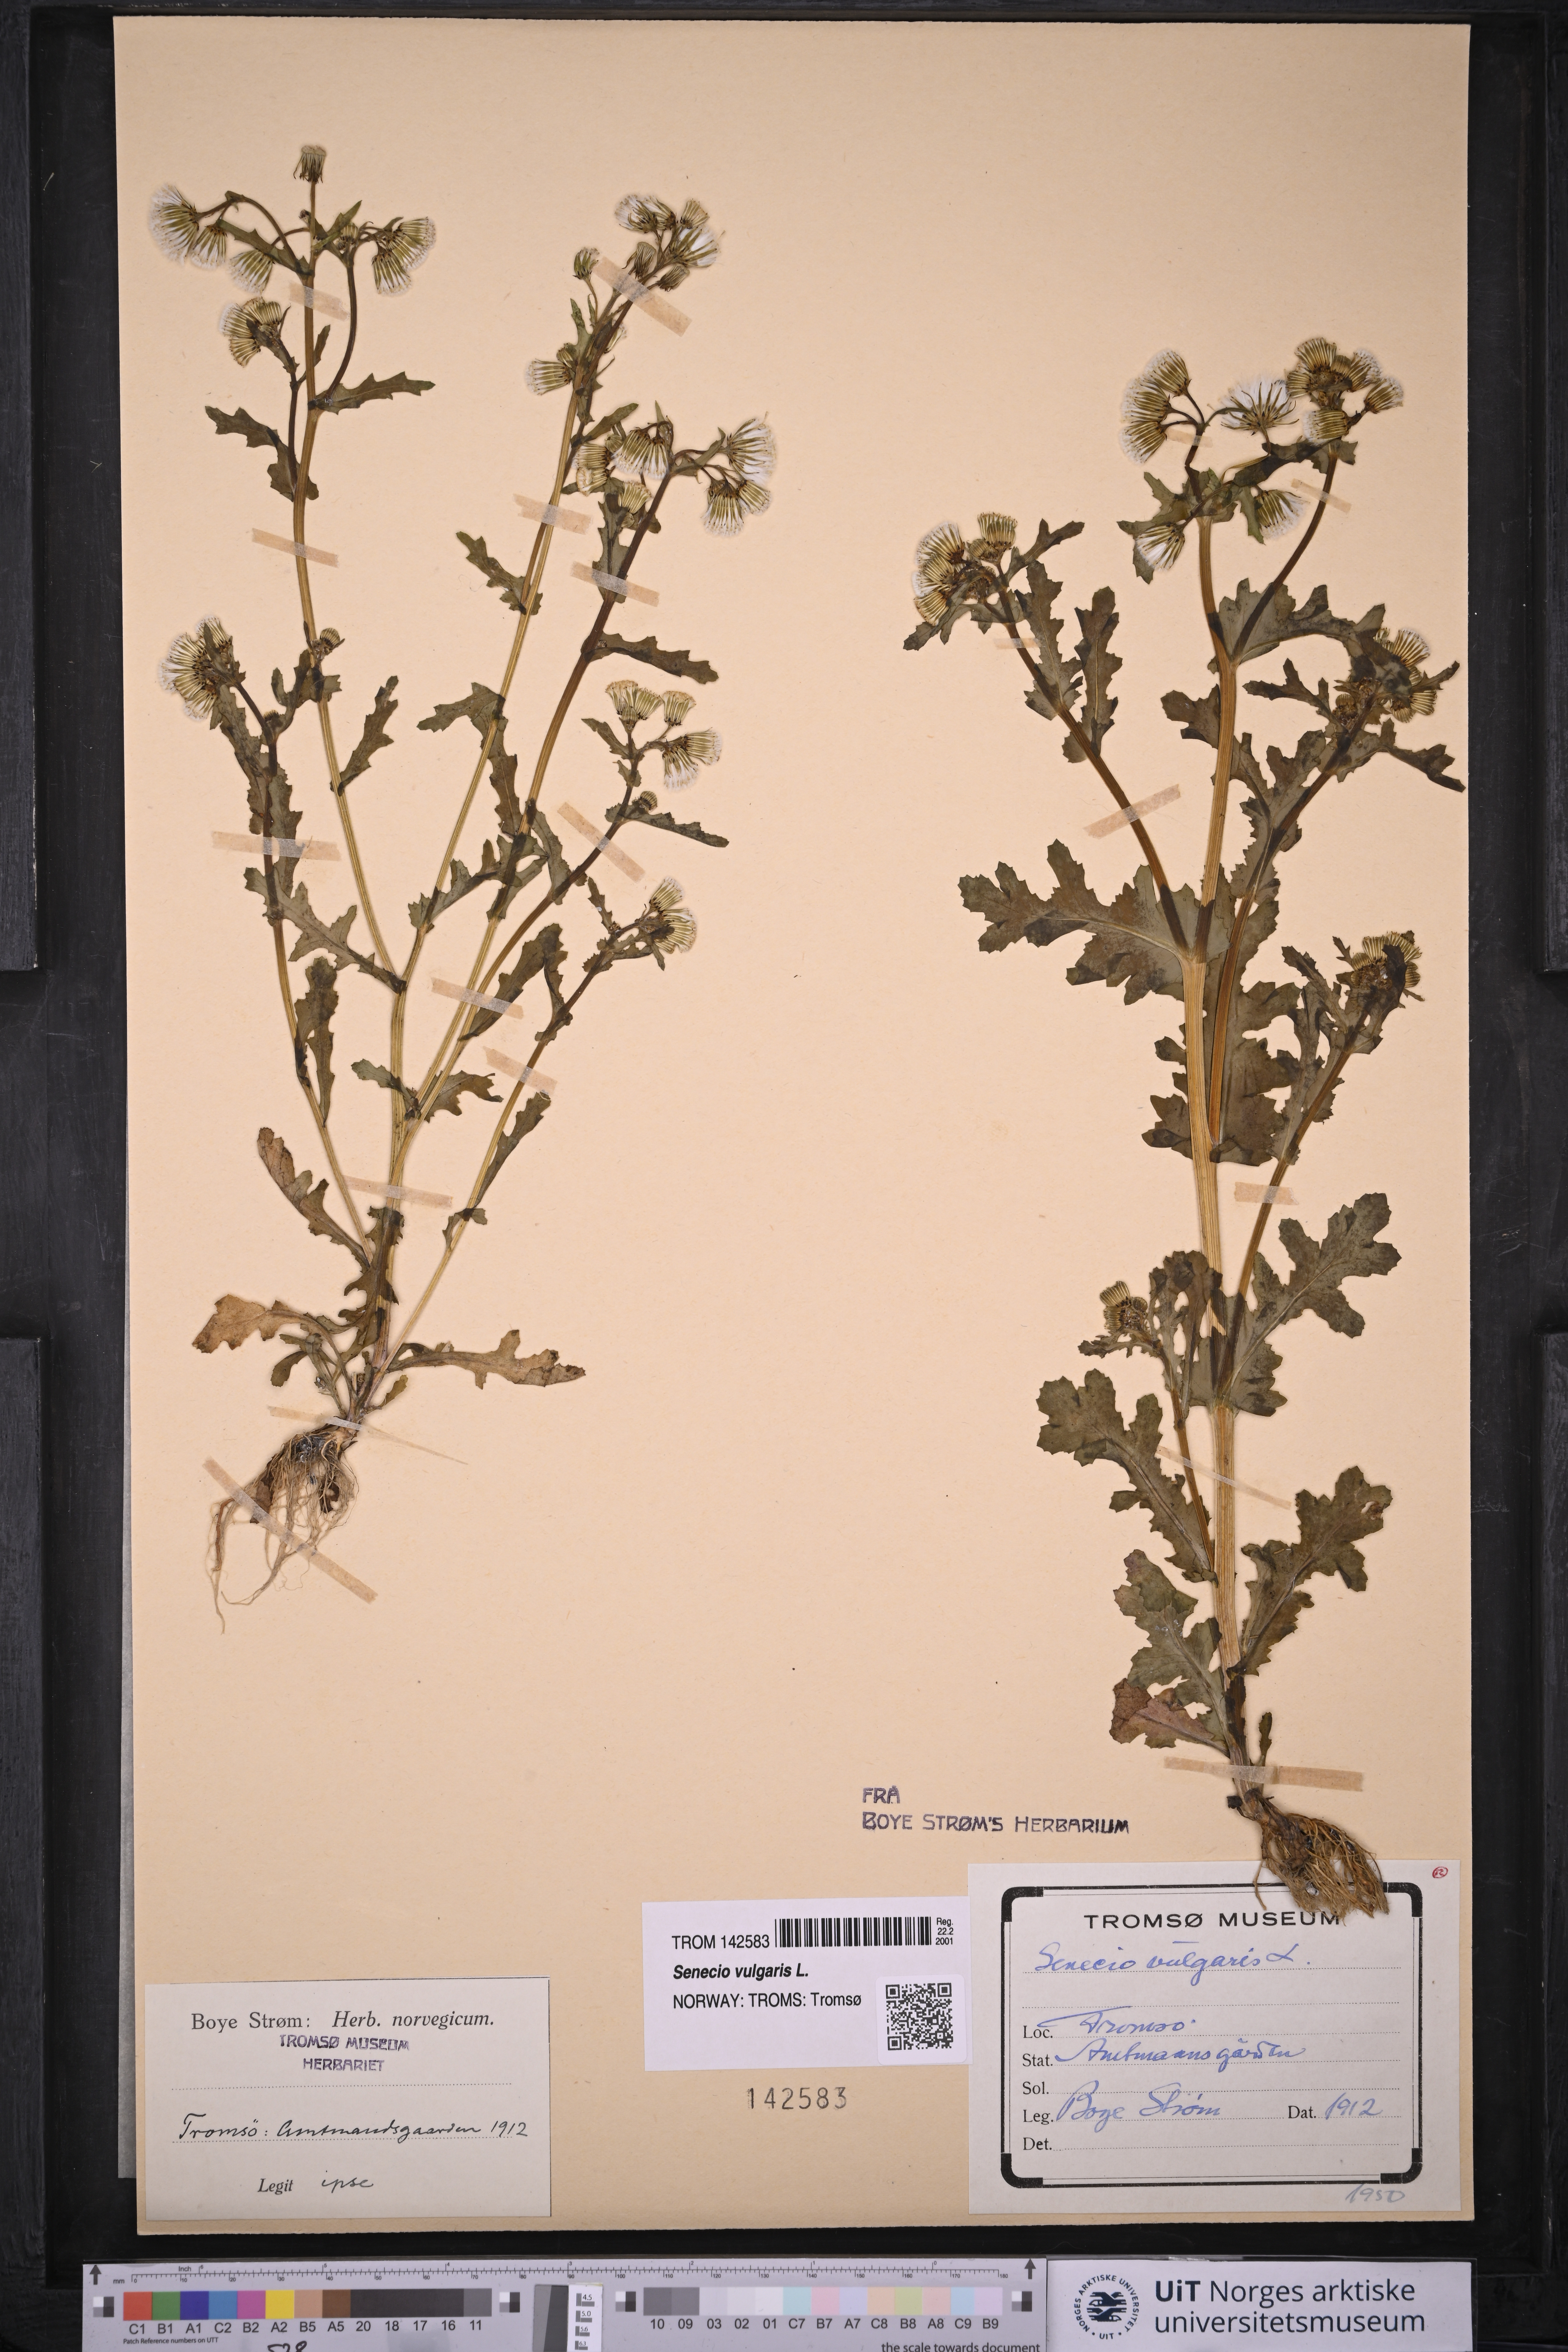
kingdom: Plantae
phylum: Tracheophyta
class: Magnoliopsida
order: Asterales
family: Asteraceae
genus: Senecio
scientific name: Senecio vulgaris
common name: Old-man-in-the-spring
